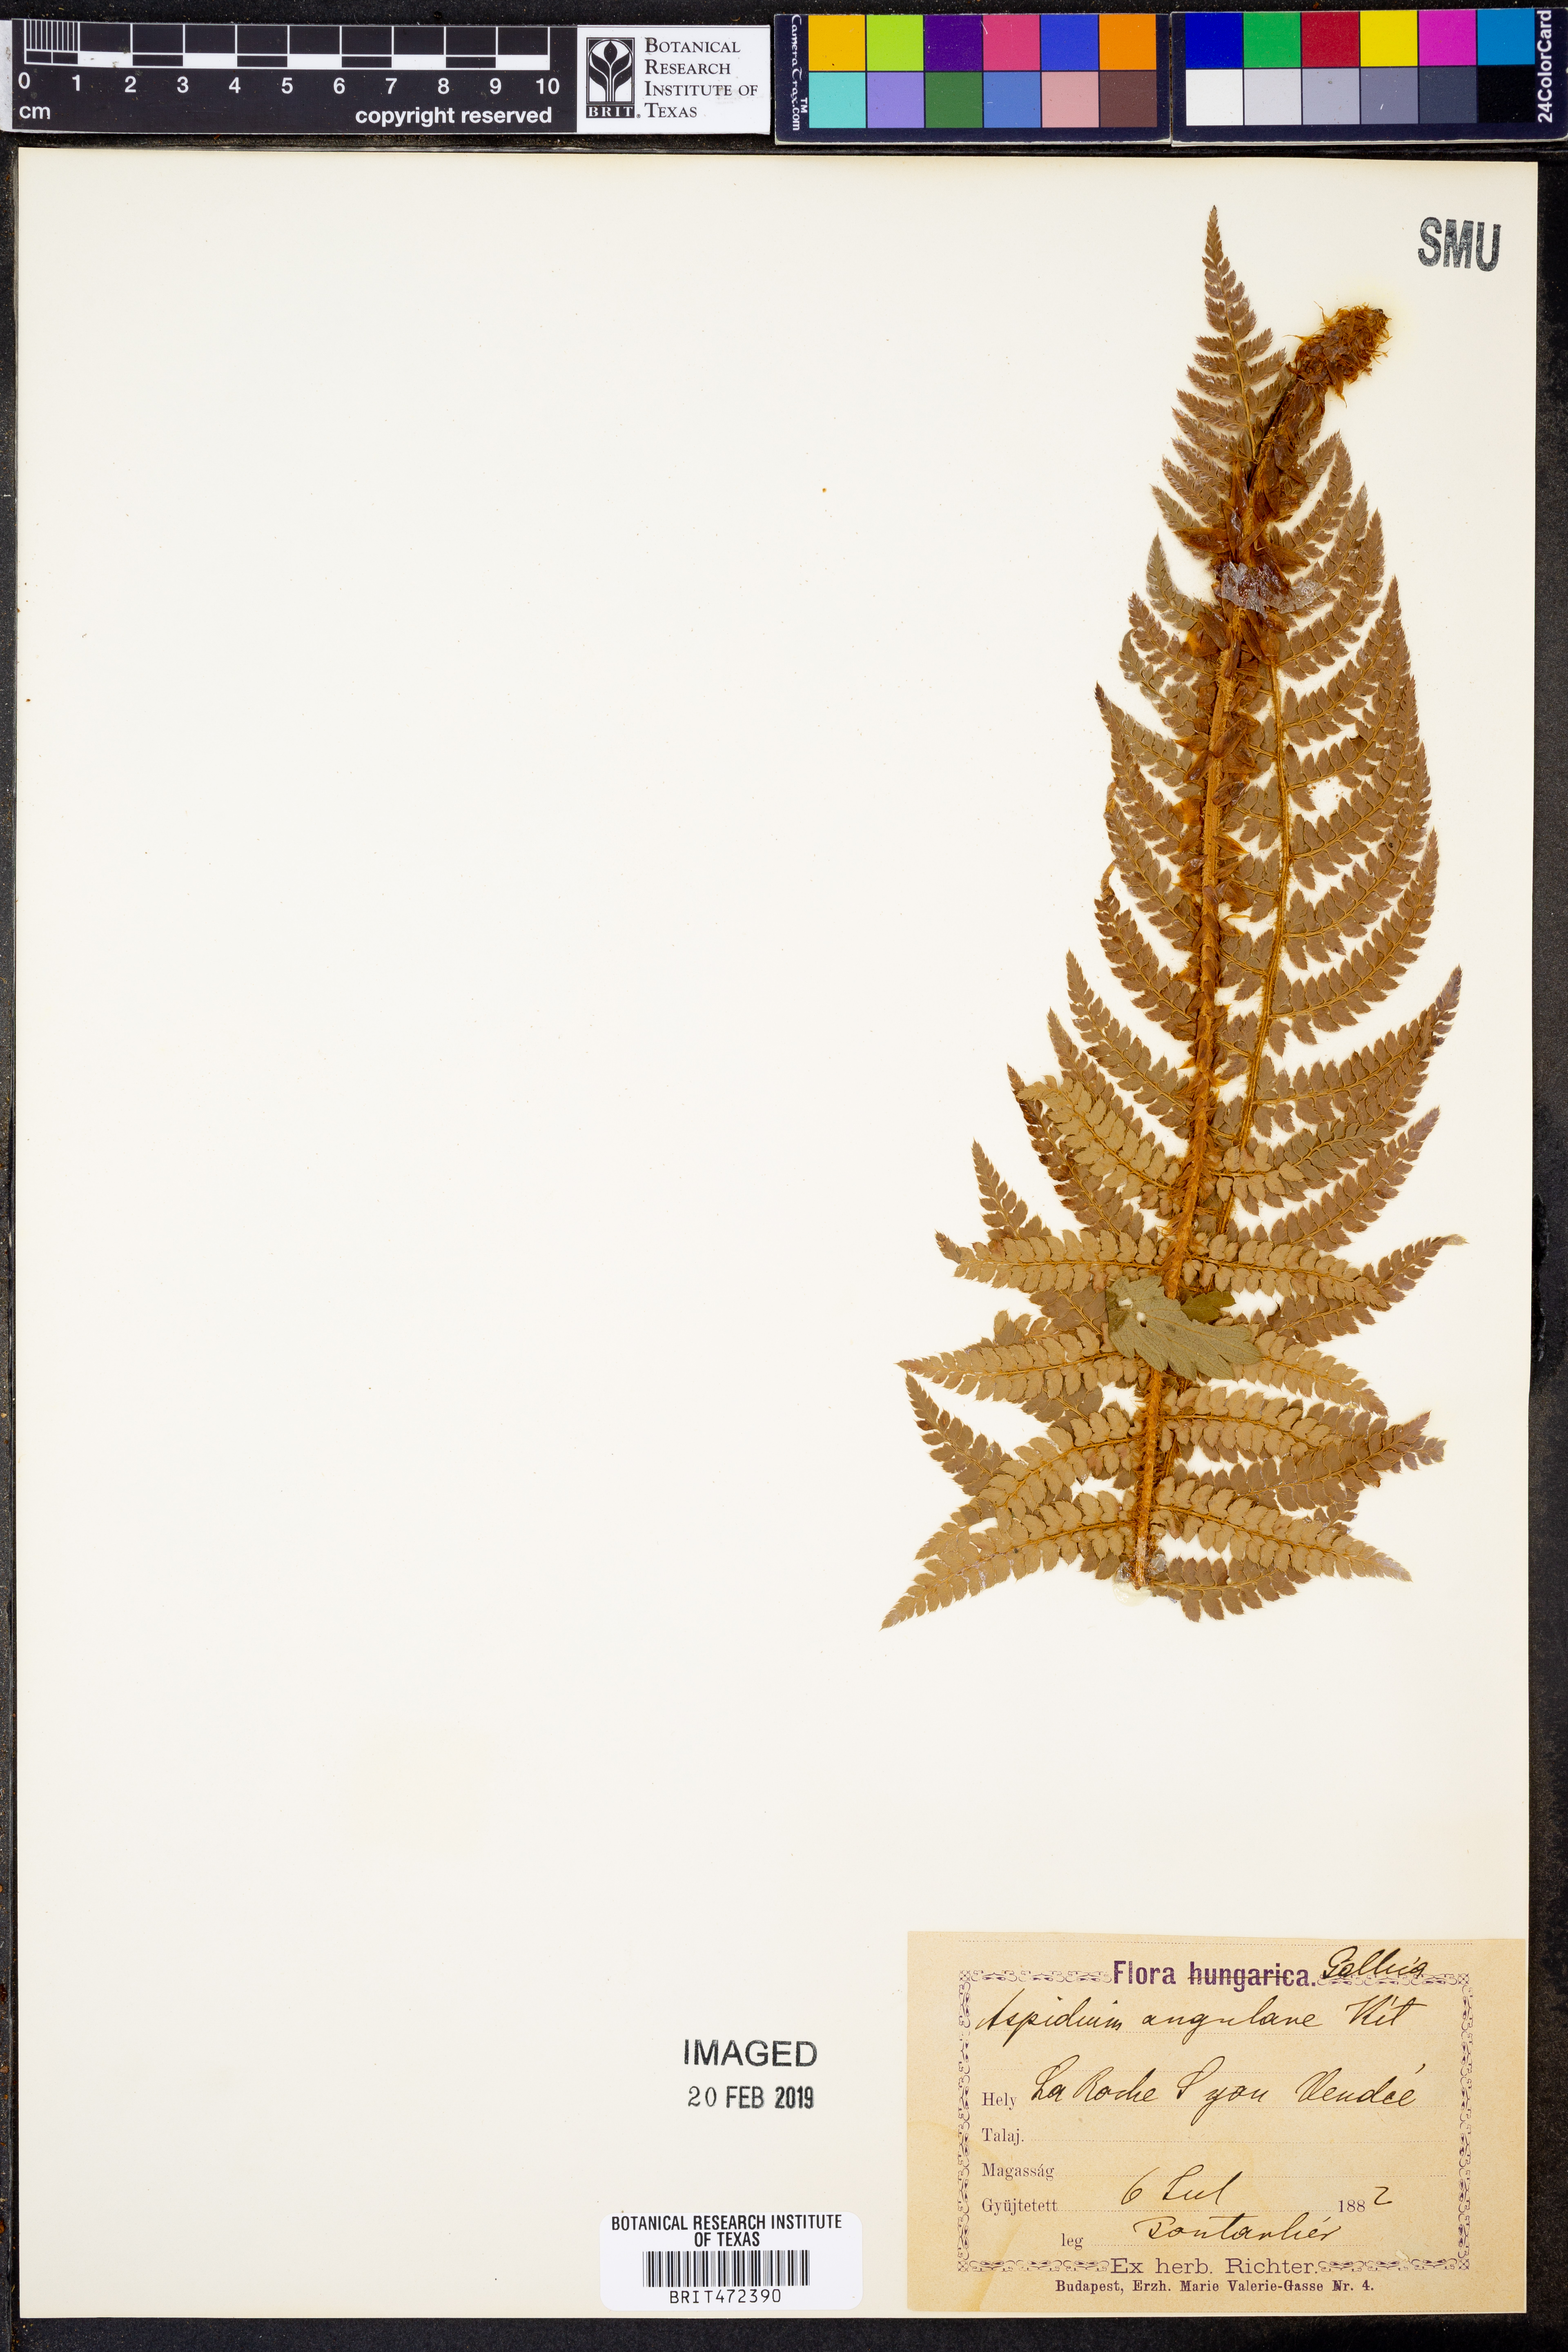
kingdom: Plantae
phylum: Tracheophyta
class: Polypodiopsida
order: Polypodiales
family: Dryopteridaceae
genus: Polystichum
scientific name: Polystichum setiferum
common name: Soft shield-fern
